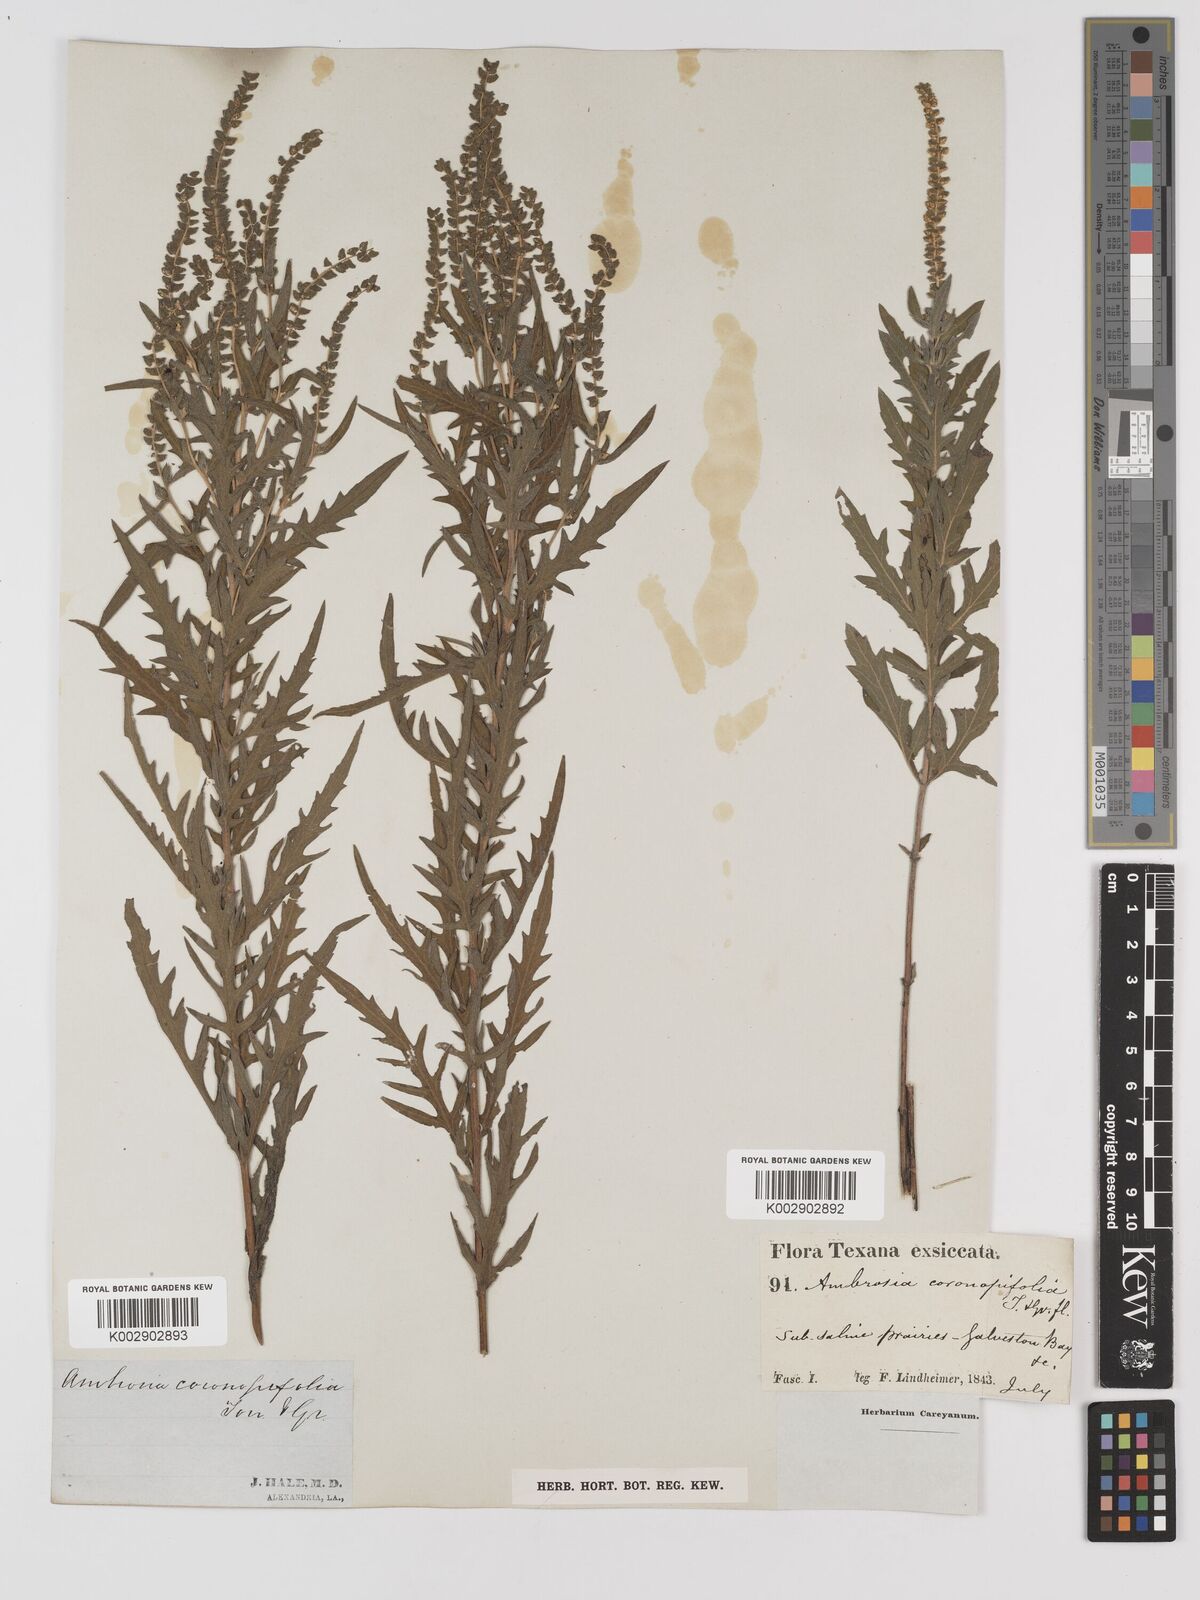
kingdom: Plantae
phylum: Tracheophyta
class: Magnoliopsida
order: Asterales
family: Asteraceae
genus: Ambrosia
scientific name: Ambrosia psilostachya
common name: Perennial ragweed
